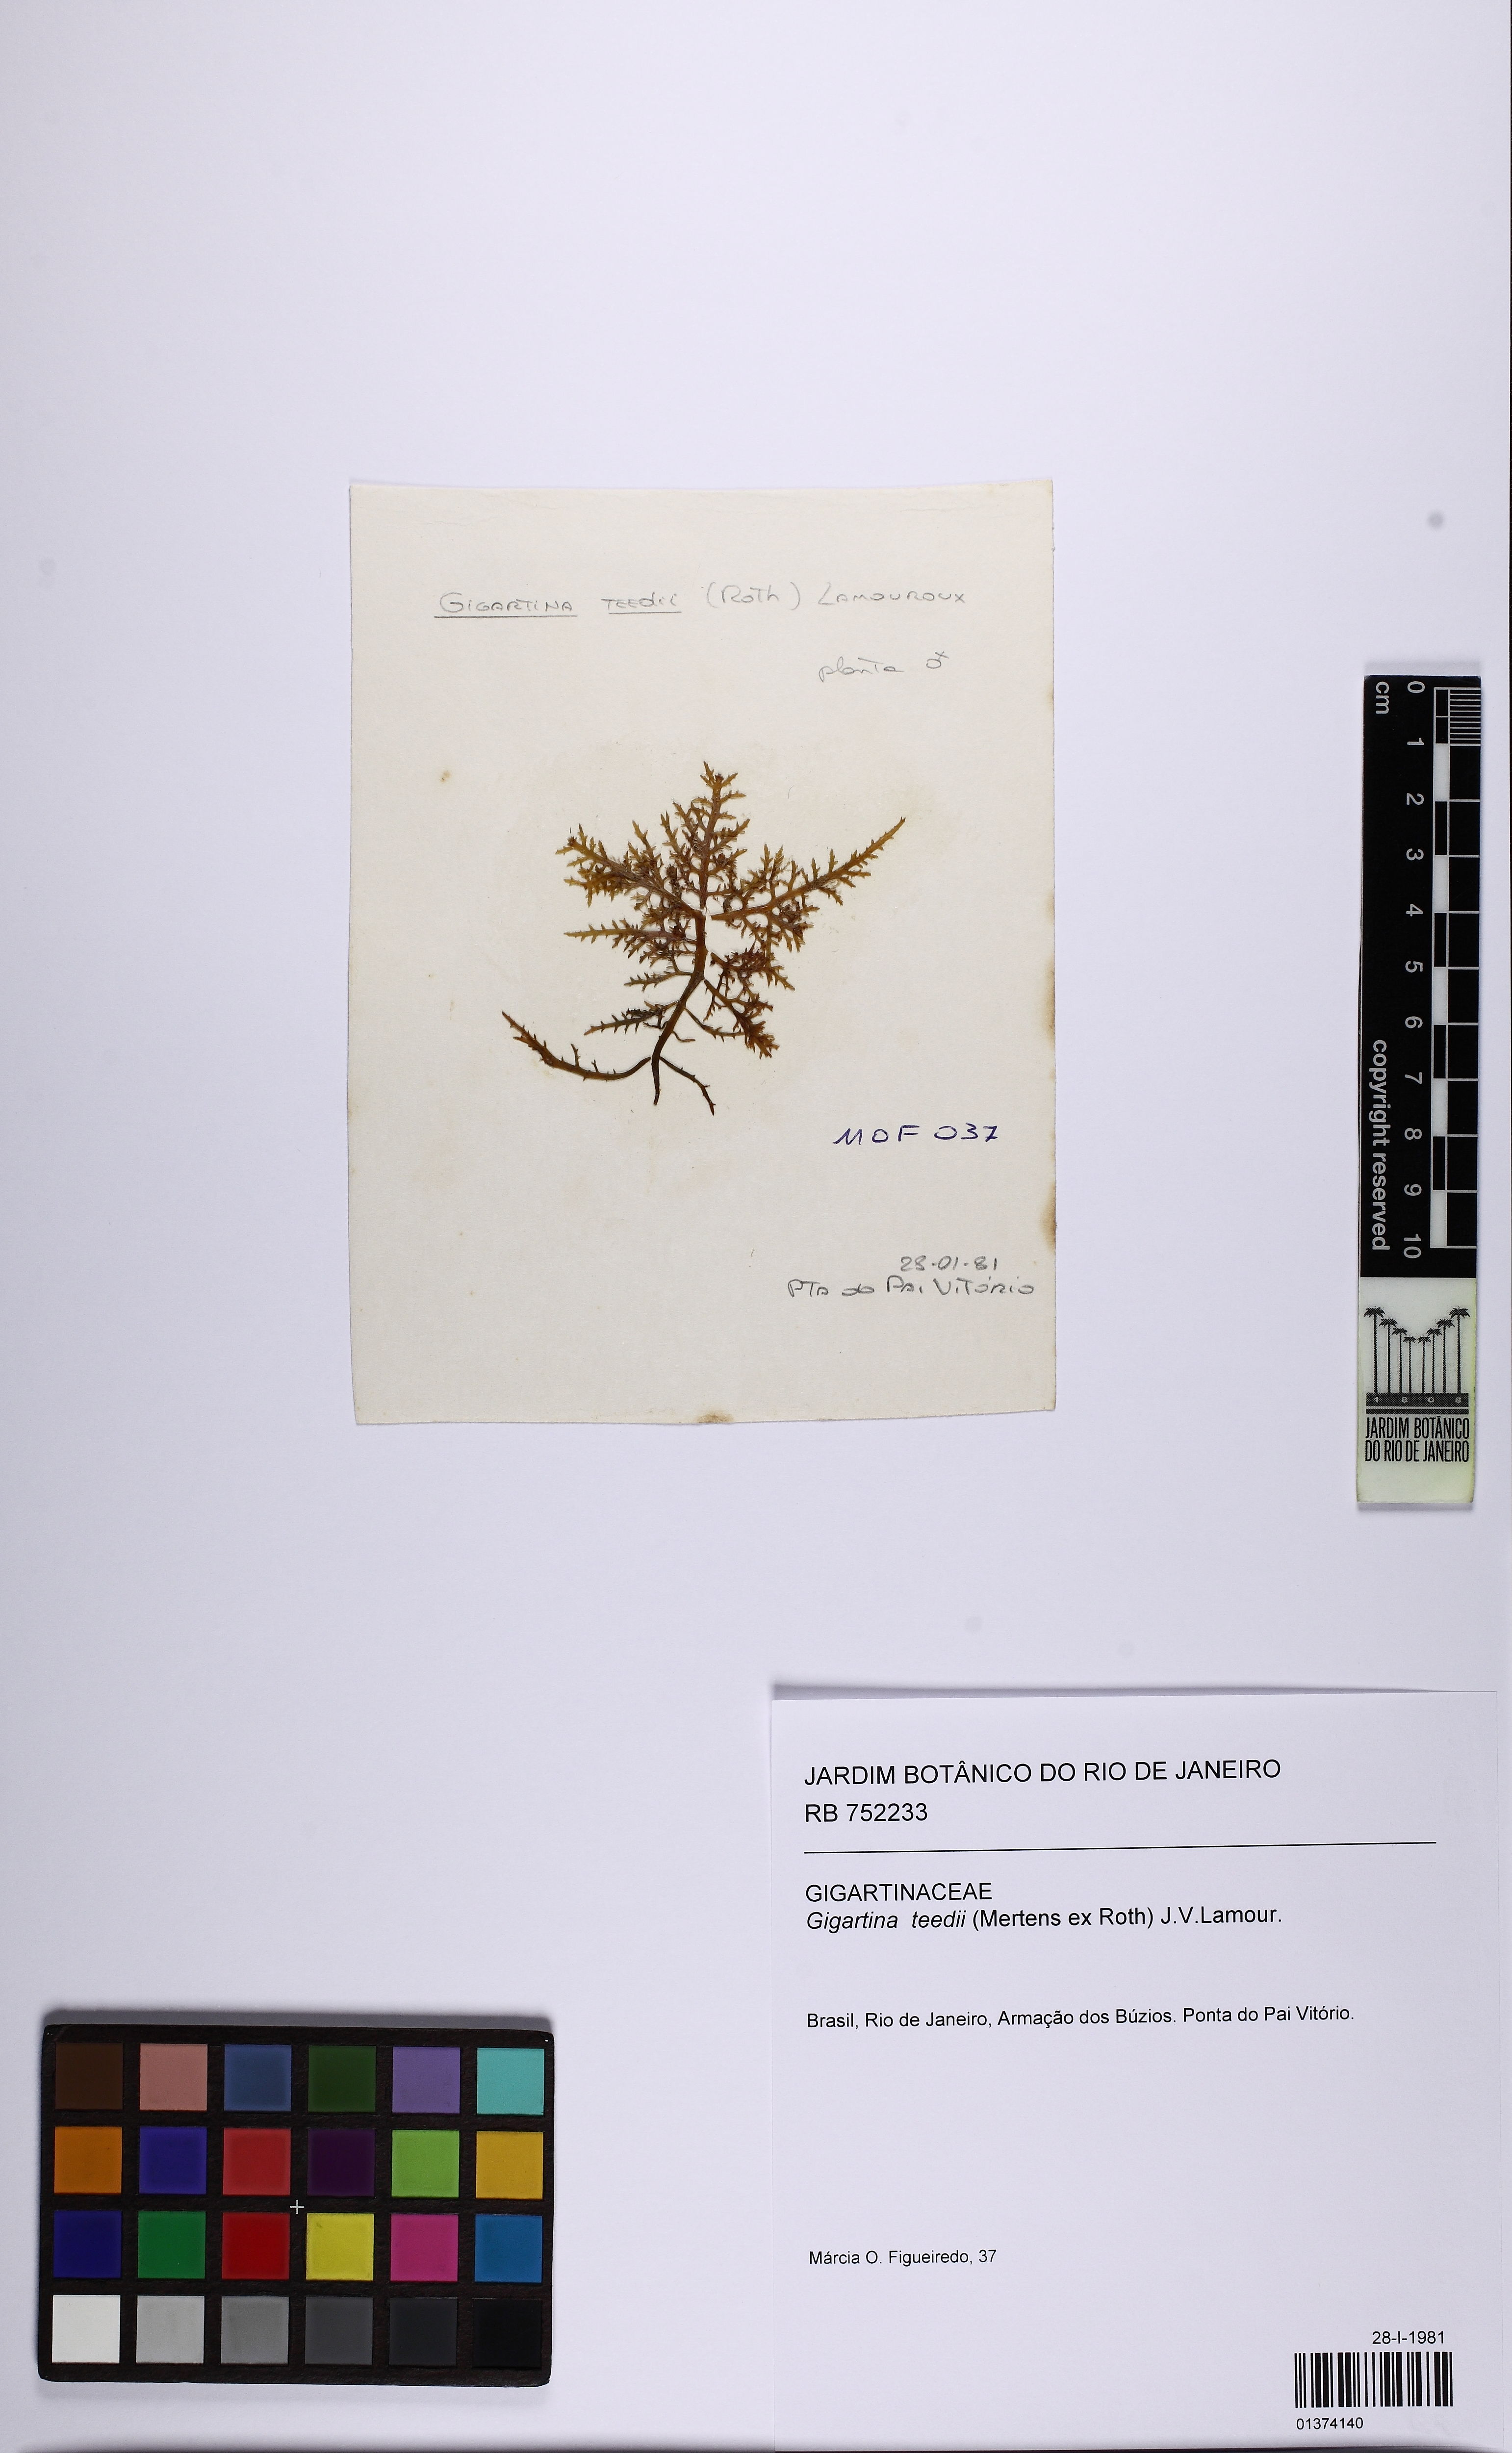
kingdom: Plantae
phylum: Rhodophyta
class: Florideophyceae
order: Gigartinales
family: Gigartinaceae
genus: Chondracanthus
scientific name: Chondracanthus teedei
